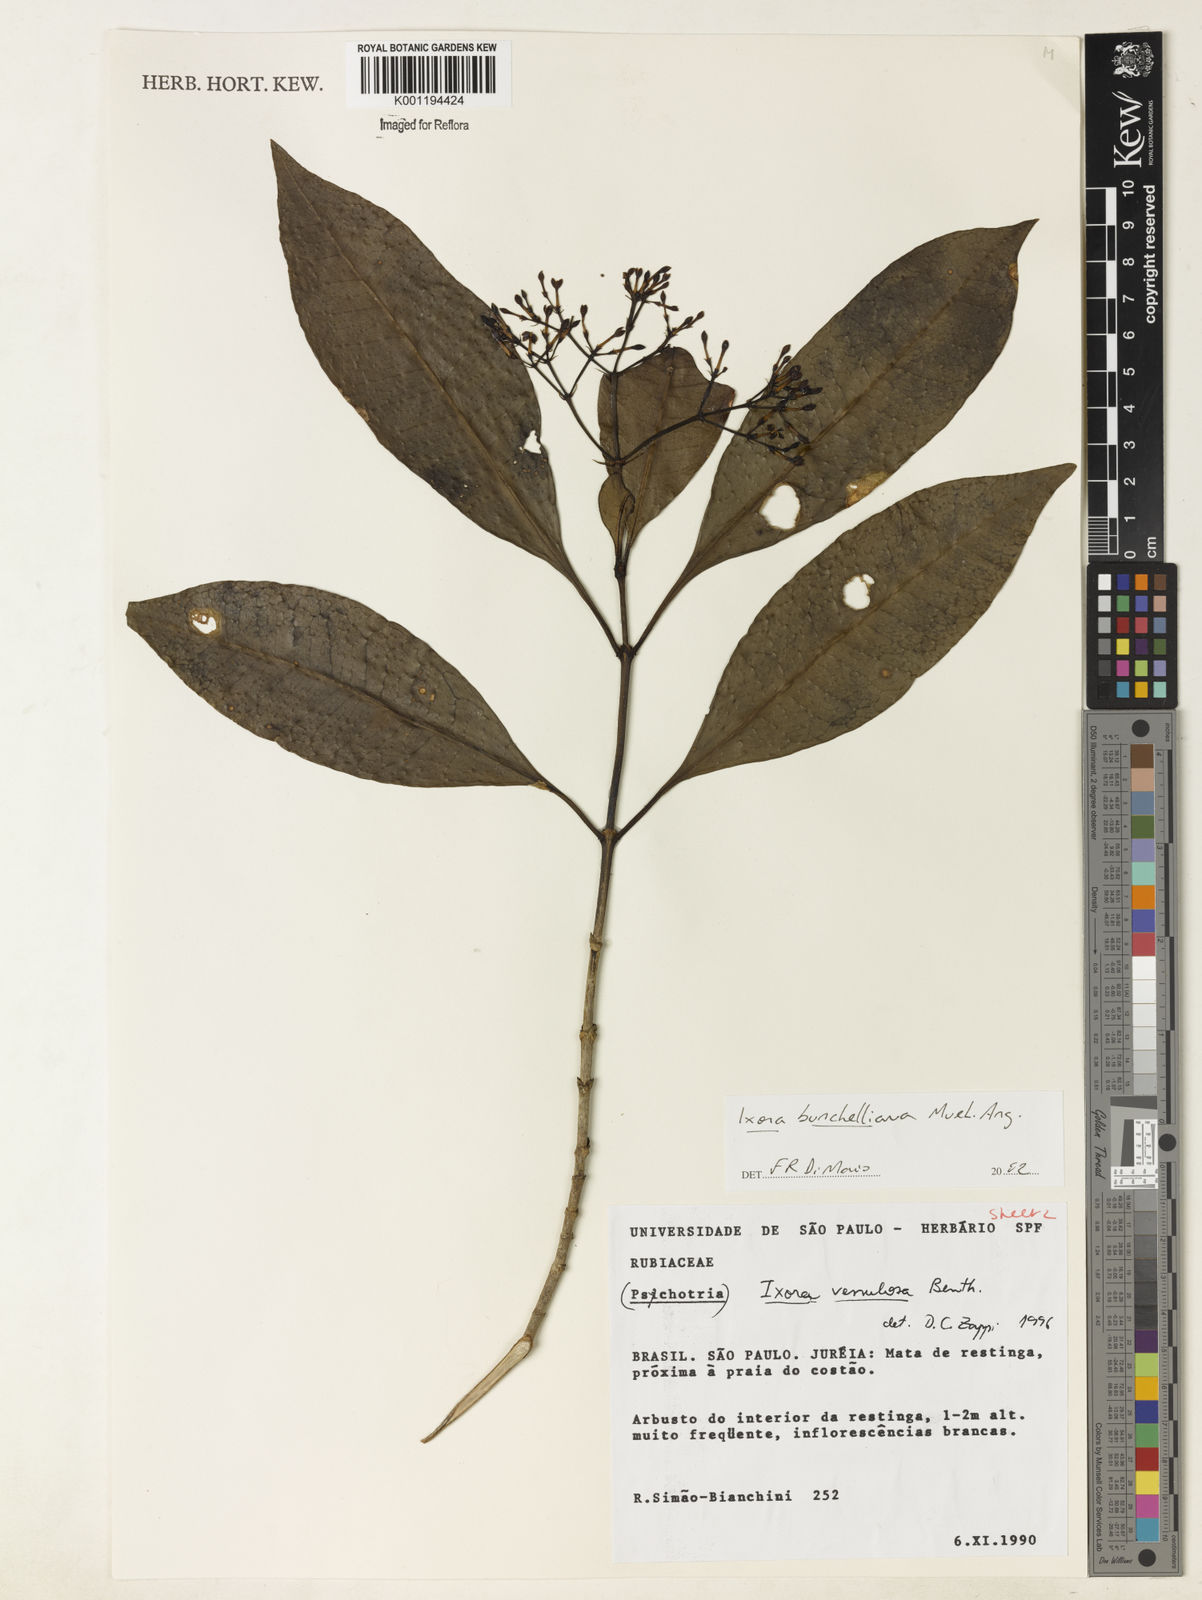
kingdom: Plantae
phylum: Tracheophyta
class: Magnoliopsida
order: Gentianales
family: Rubiaceae
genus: Ixora
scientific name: Ixora
